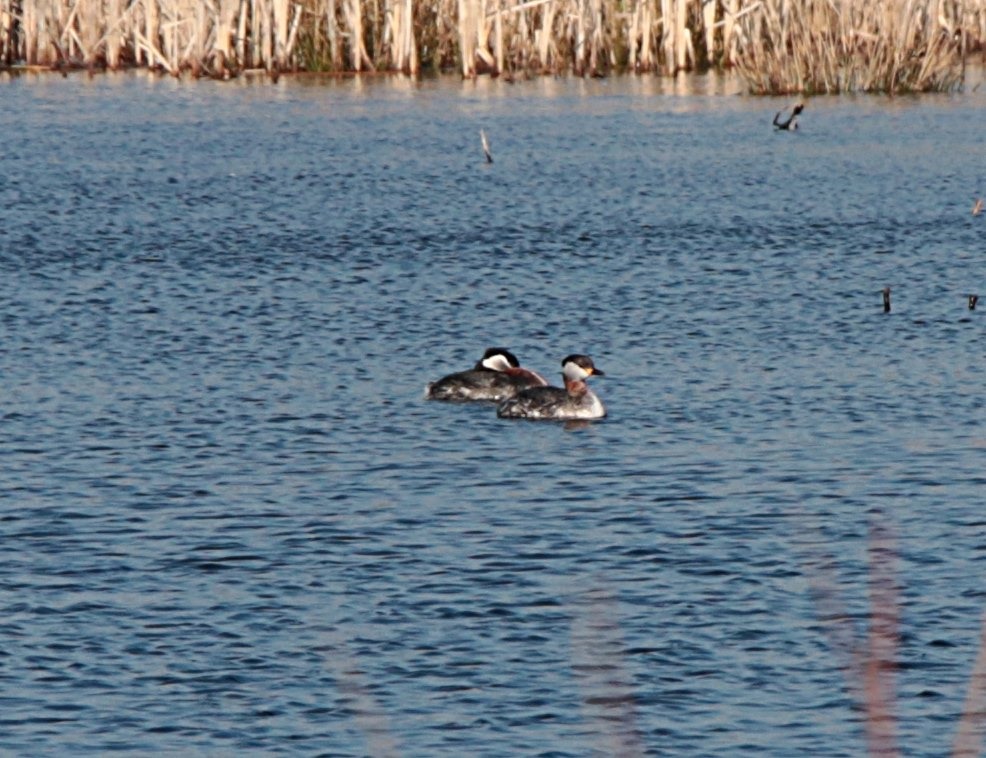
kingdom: Animalia
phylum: Chordata
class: Aves
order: Podicipediformes
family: Podicipedidae
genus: Podiceps
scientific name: Podiceps grisegena
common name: Gråstrubet lappedykker
